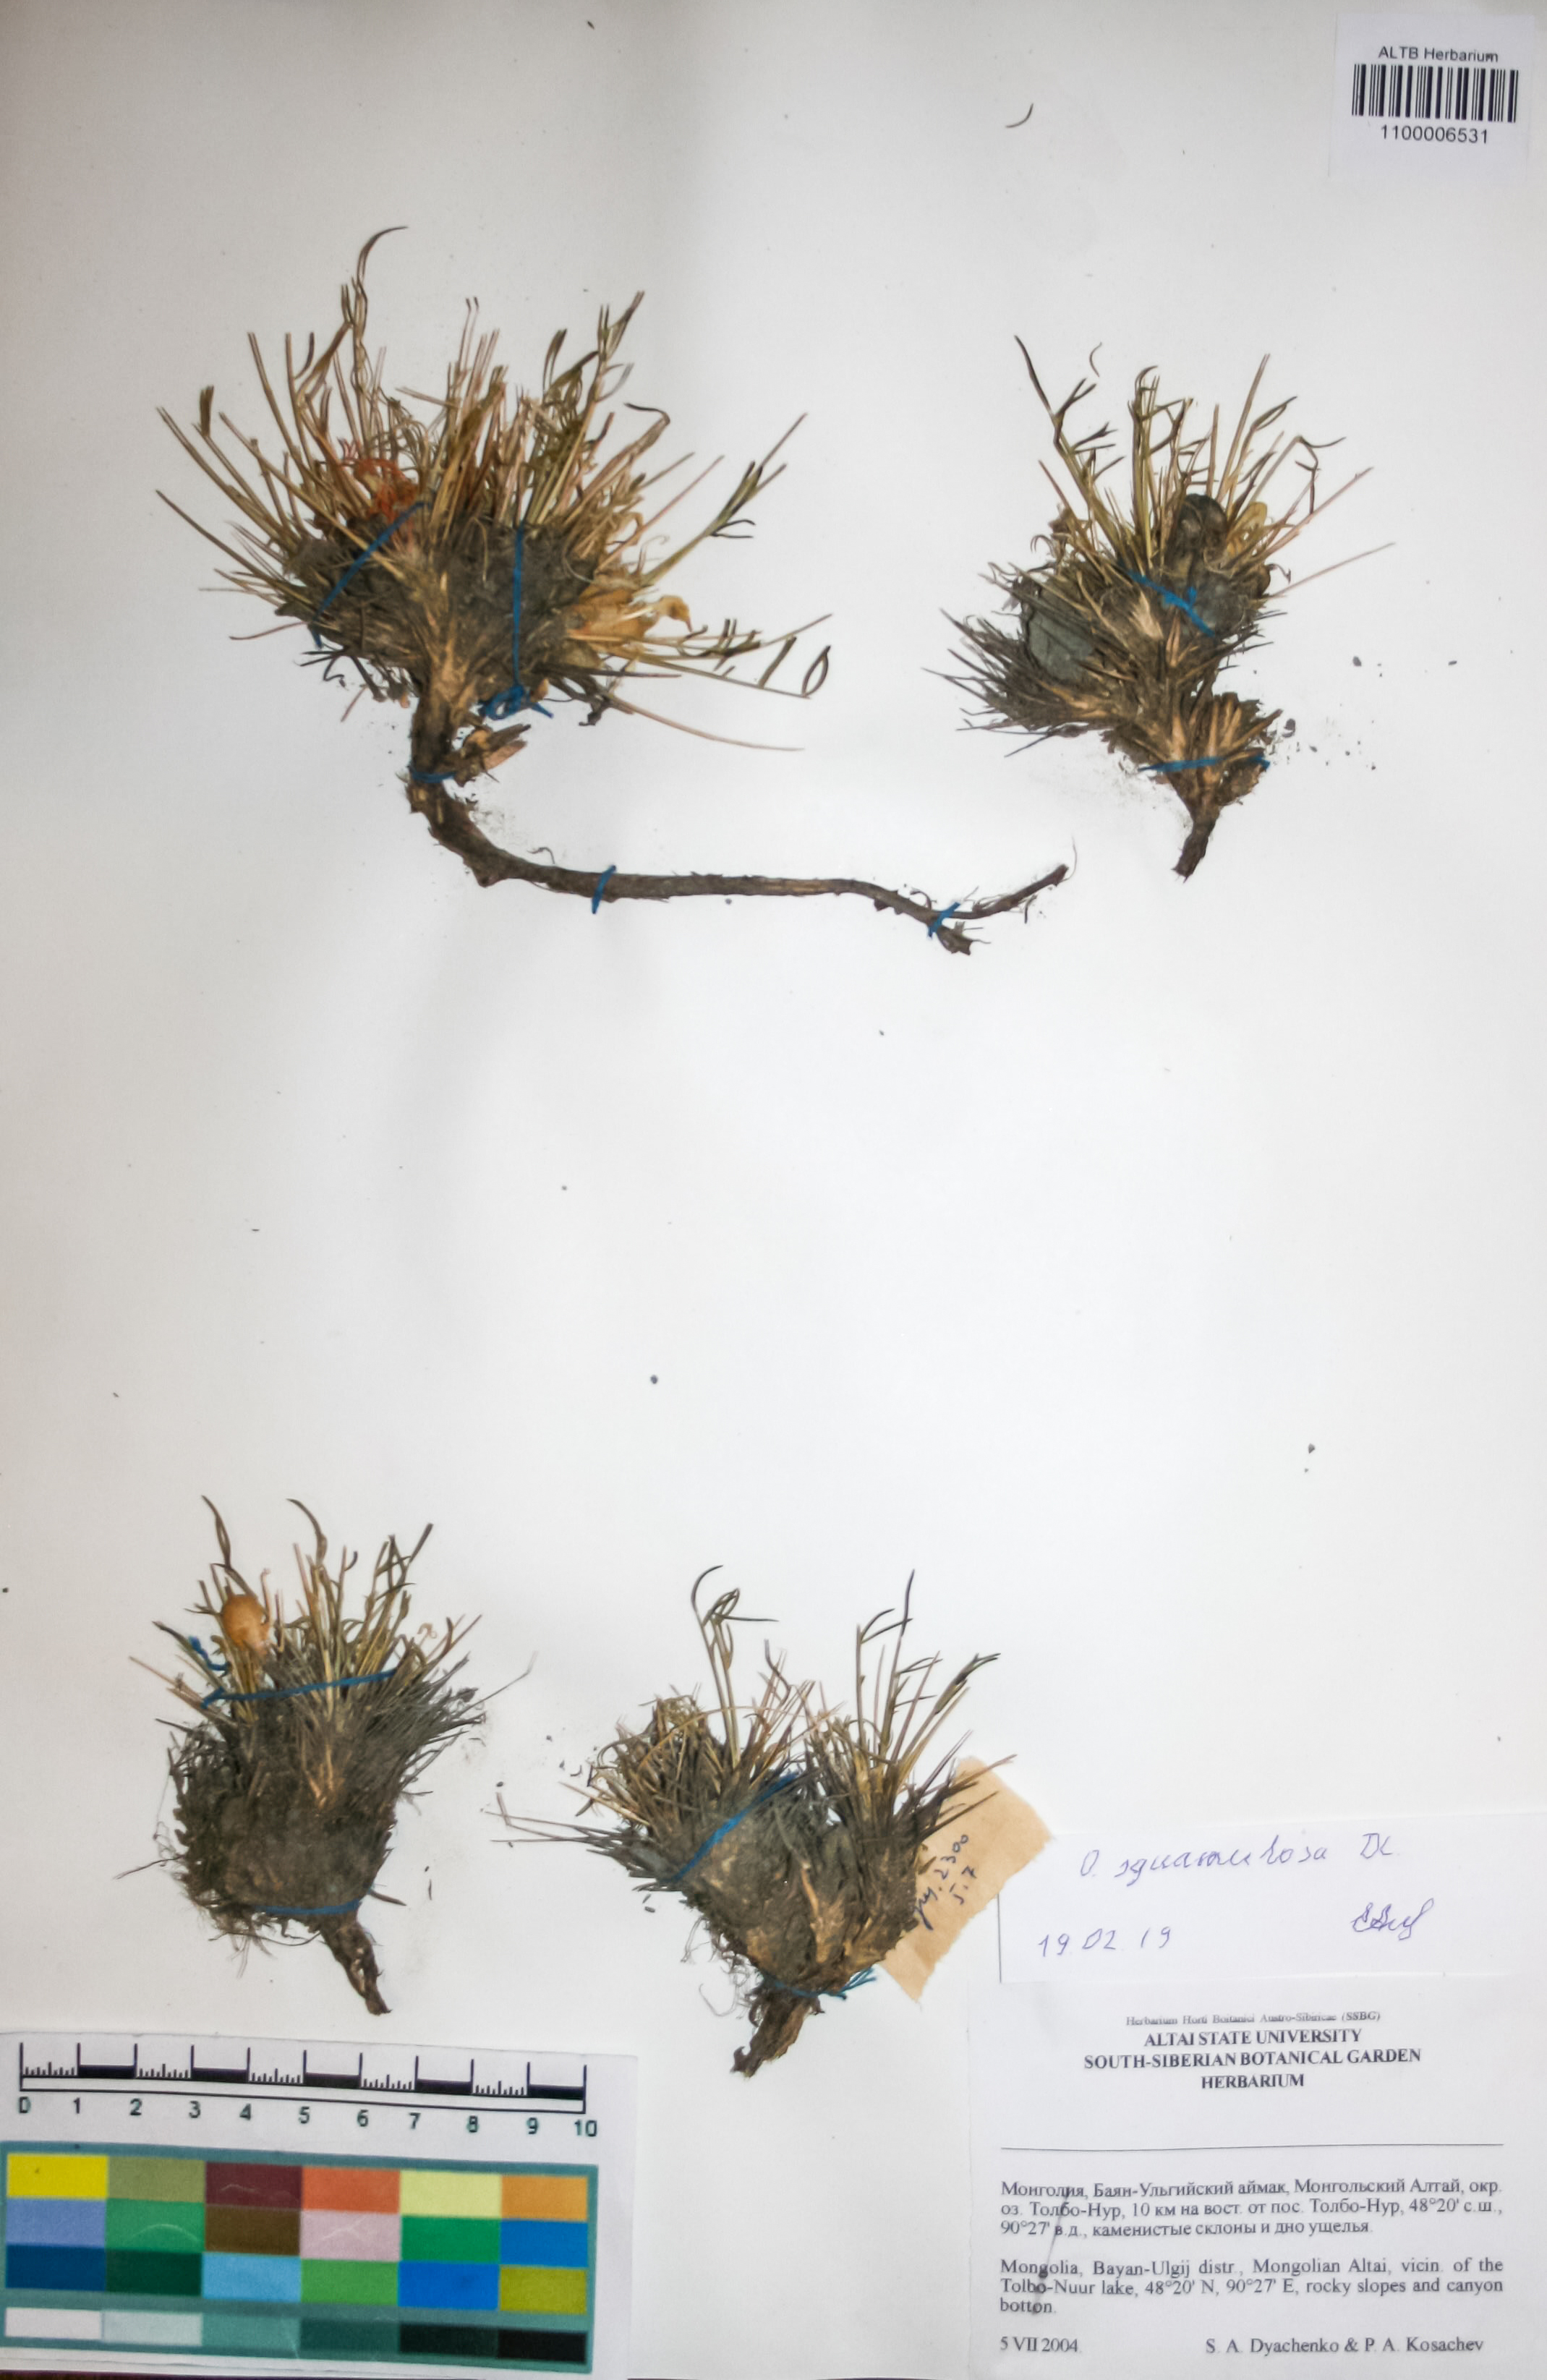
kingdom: Plantae
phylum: Tracheophyta
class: Magnoliopsida
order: Fabales
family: Fabaceae
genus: Oxytropis
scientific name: Oxytropis squammulosa
